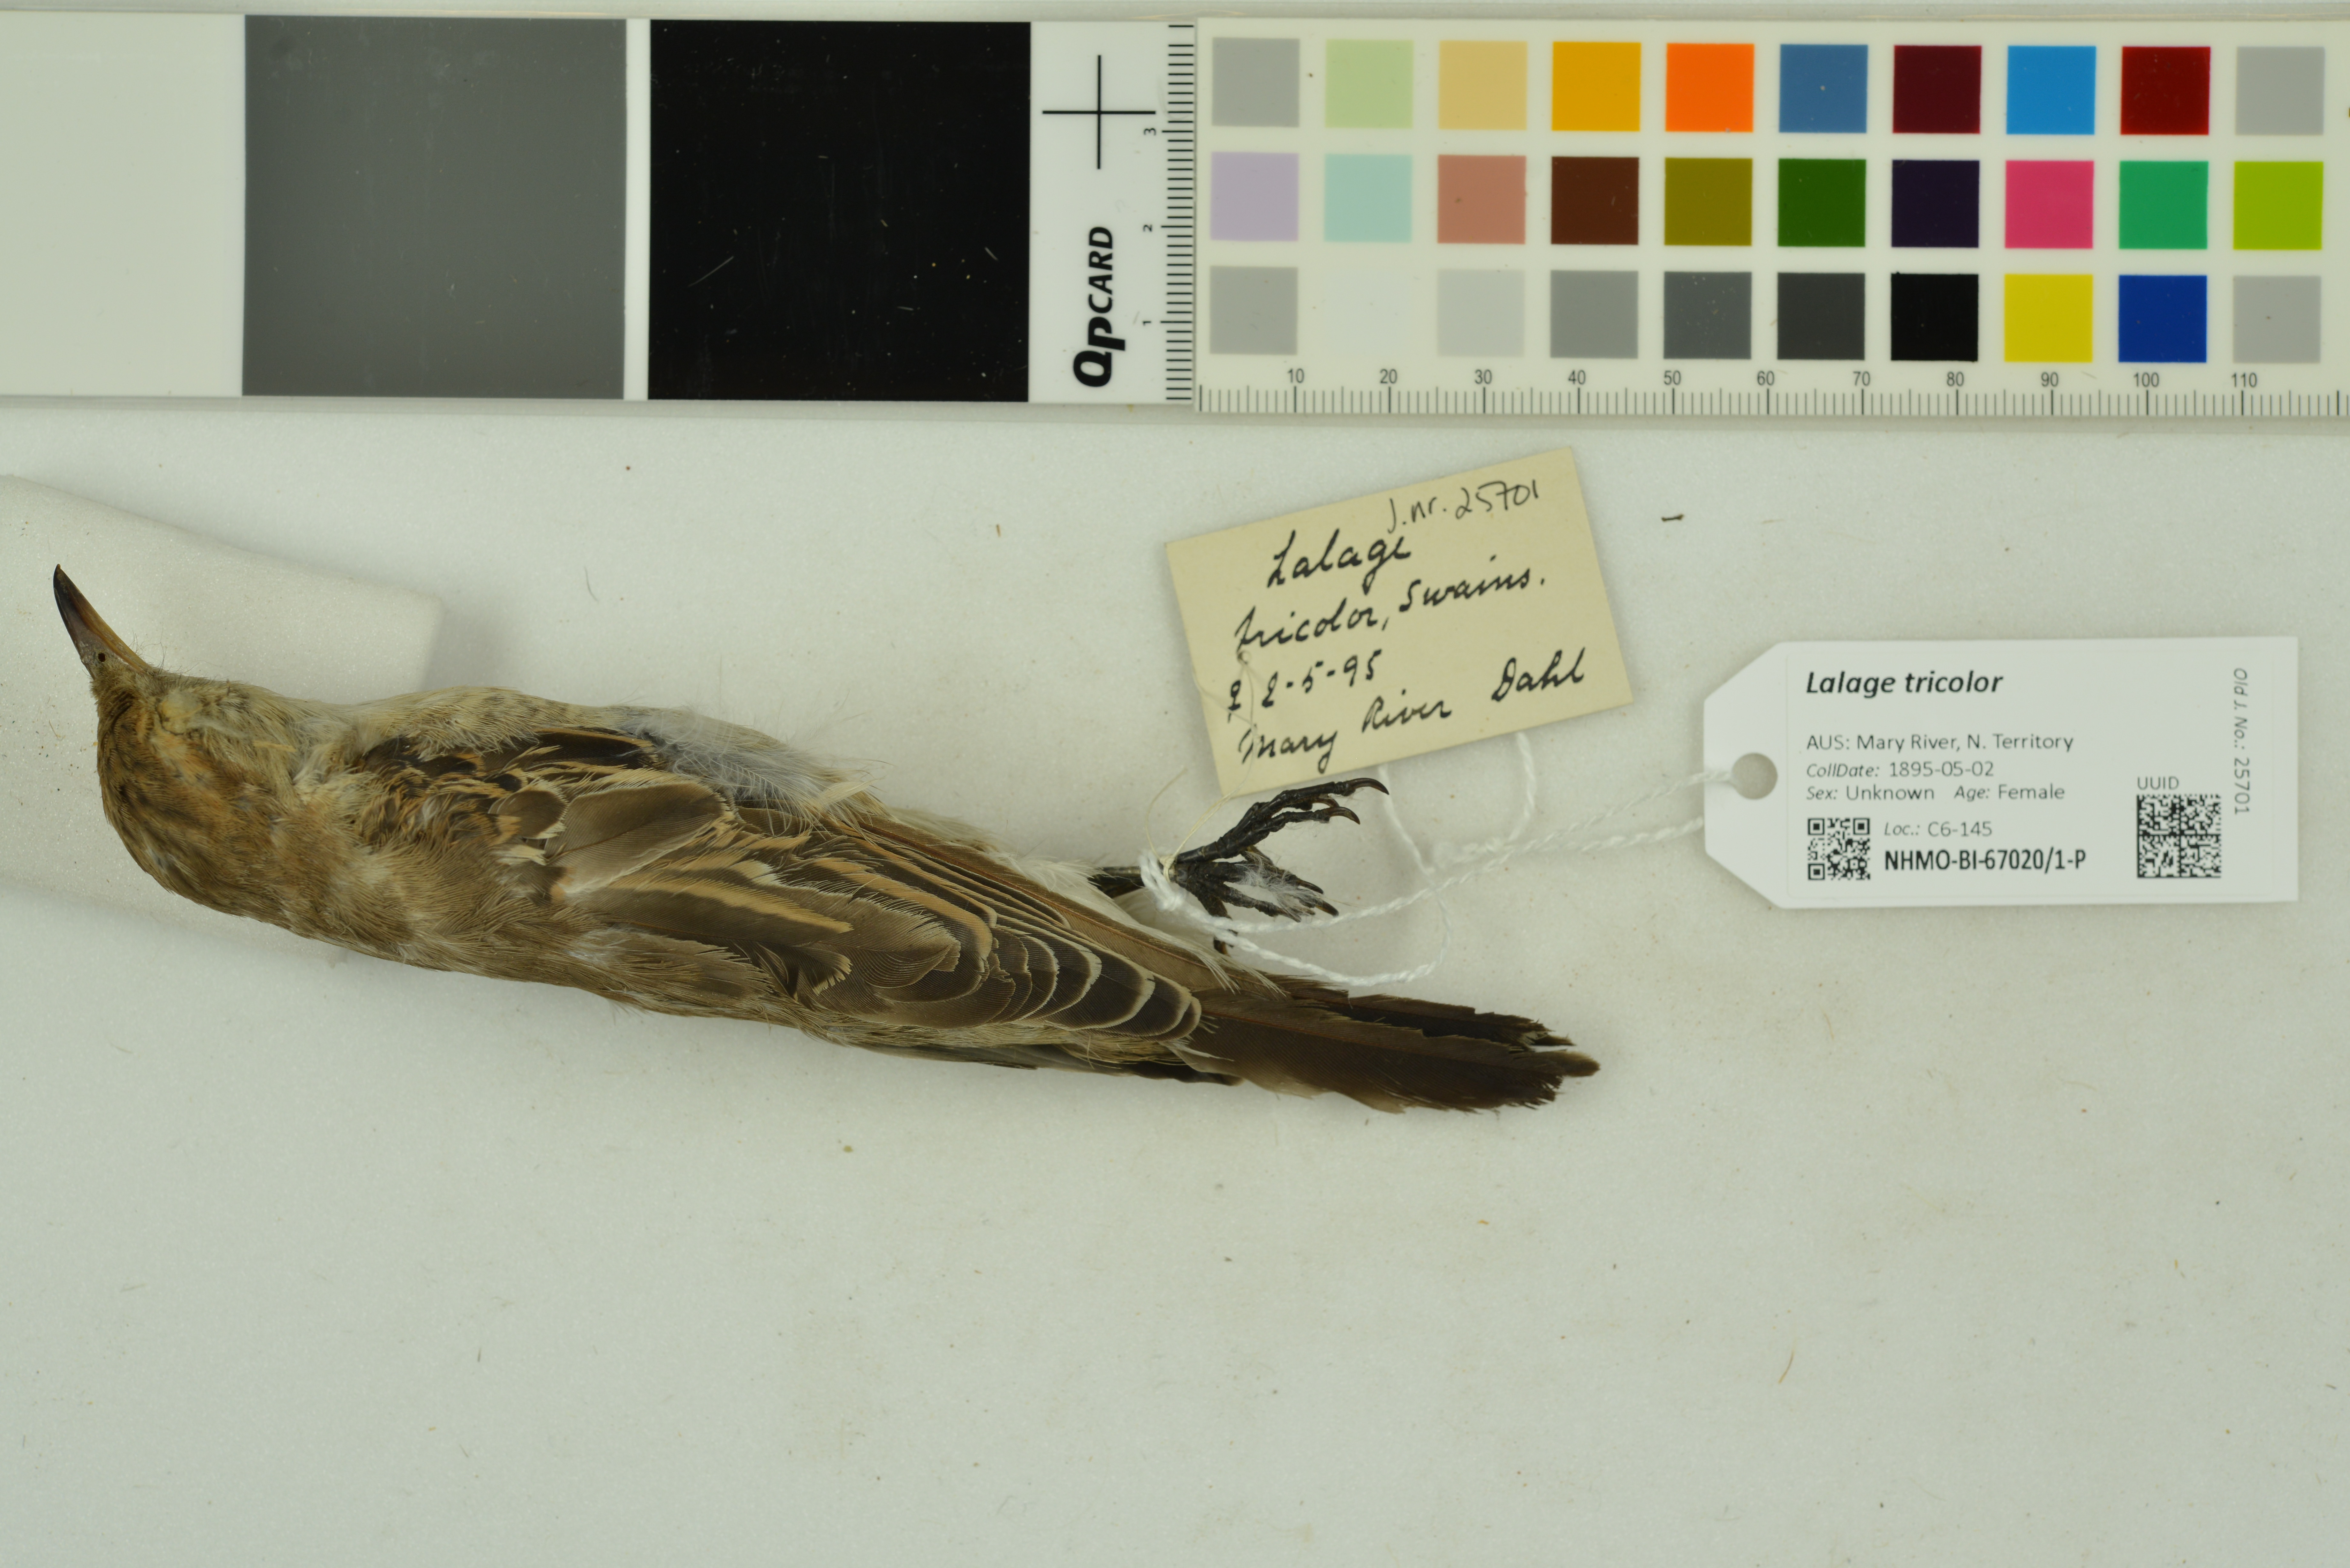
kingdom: Animalia
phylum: Chordata
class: Aves
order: Passeriformes
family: Campephagidae
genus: Lalage
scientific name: Lalage tricolor
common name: White-winged triller
